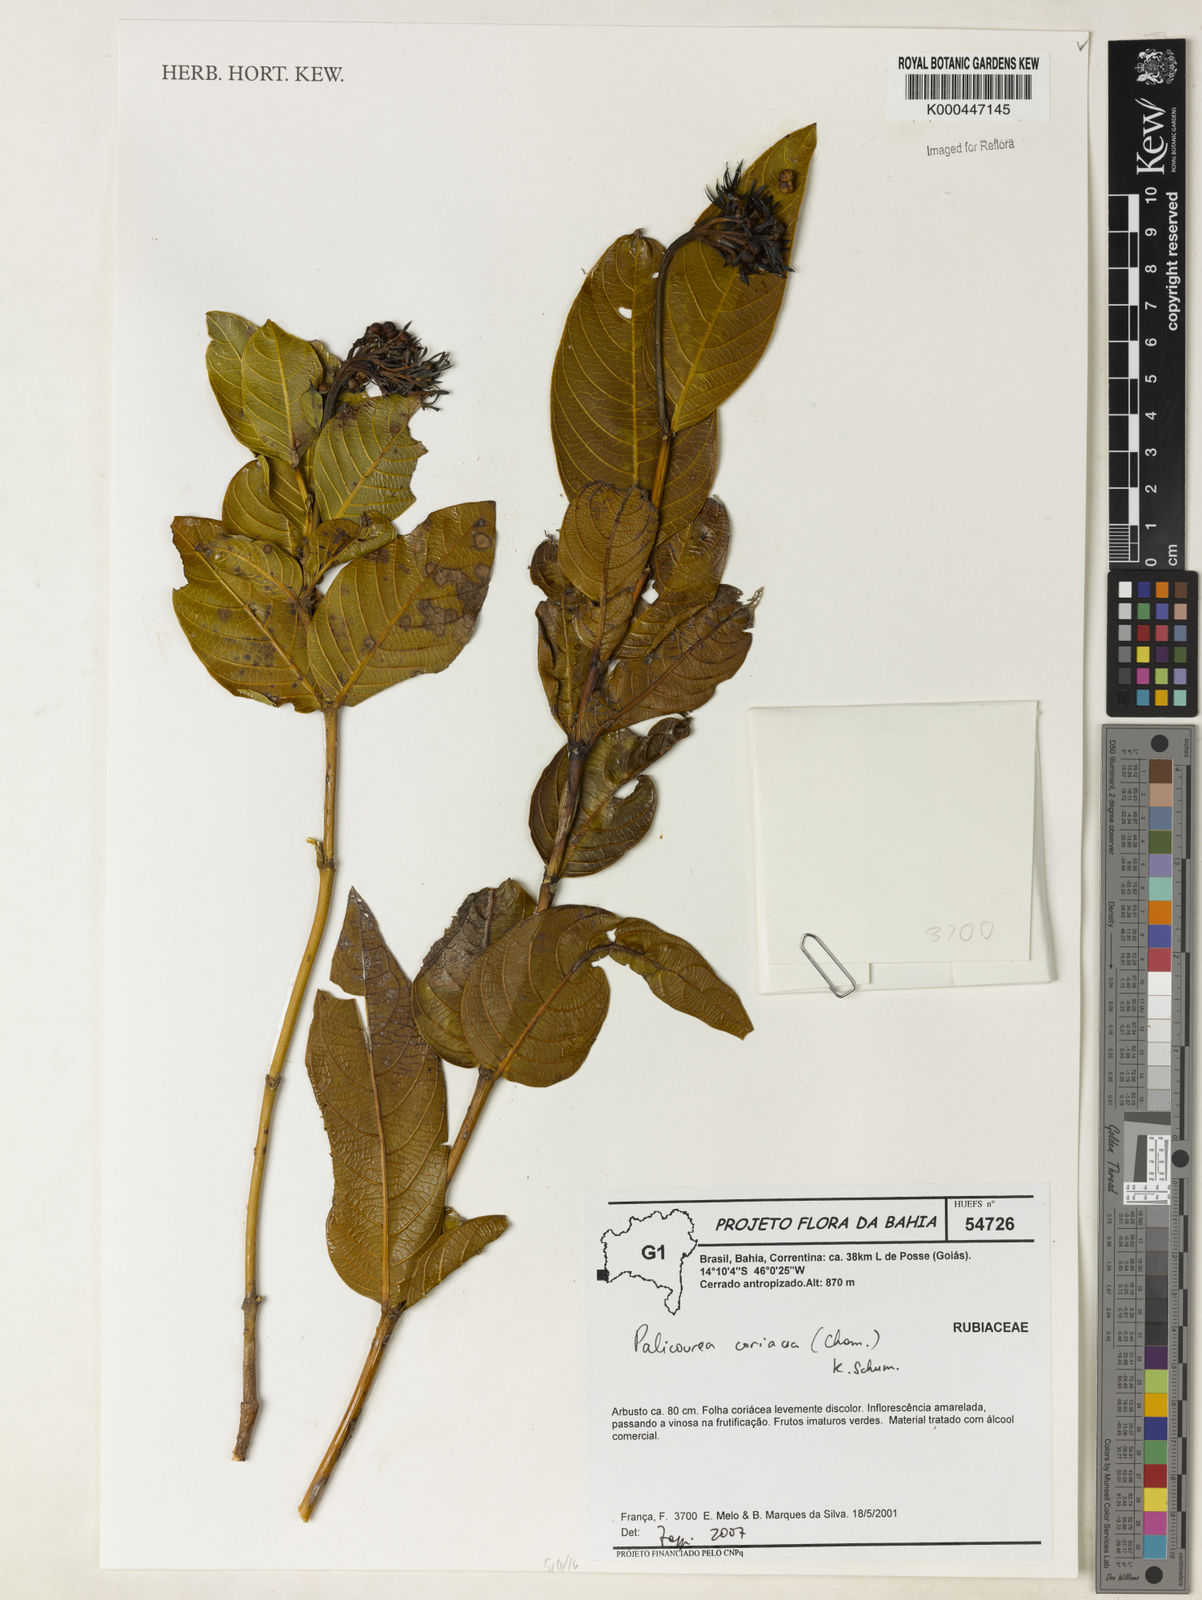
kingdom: Plantae
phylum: Tracheophyta
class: Magnoliopsida
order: Gentianales
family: Rubiaceae
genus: Palicourea
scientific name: Palicourea coriacea
